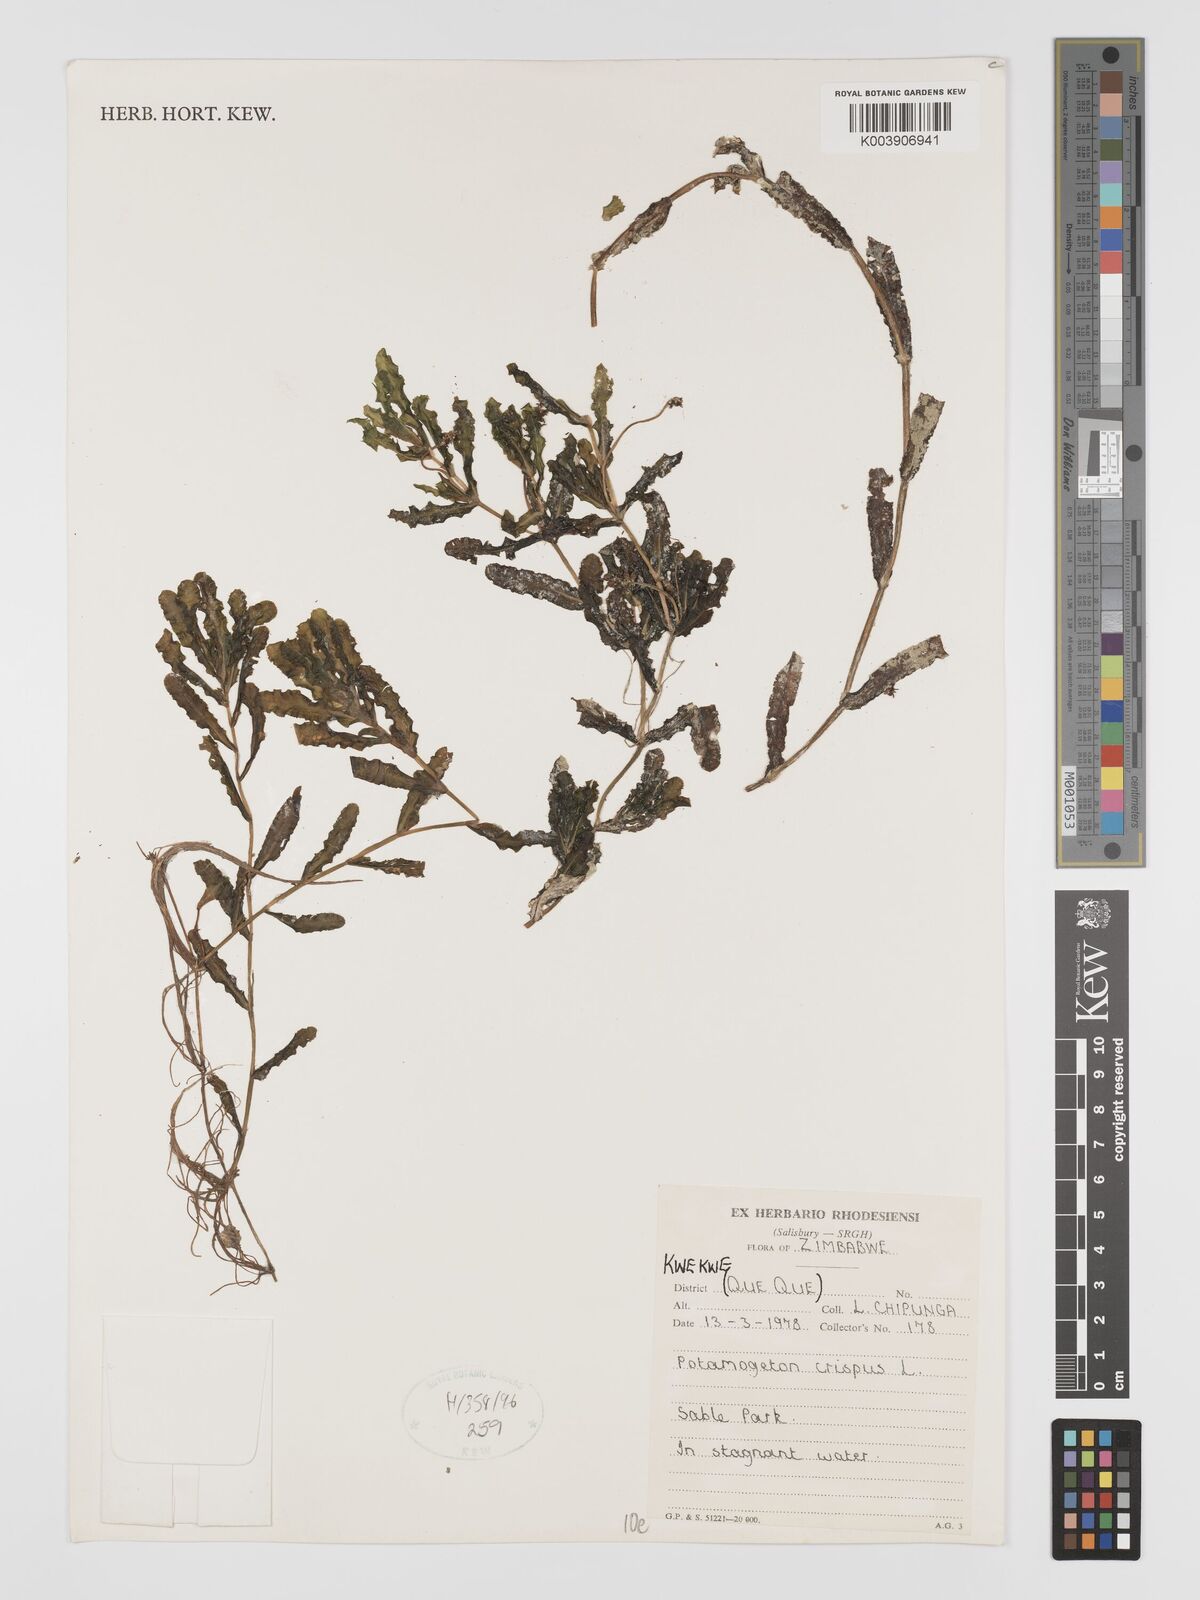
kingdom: Plantae
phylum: Tracheophyta
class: Liliopsida
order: Alismatales
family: Potamogetonaceae
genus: Potamogeton
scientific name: Potamogeton crispus
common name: Curled pondweed
